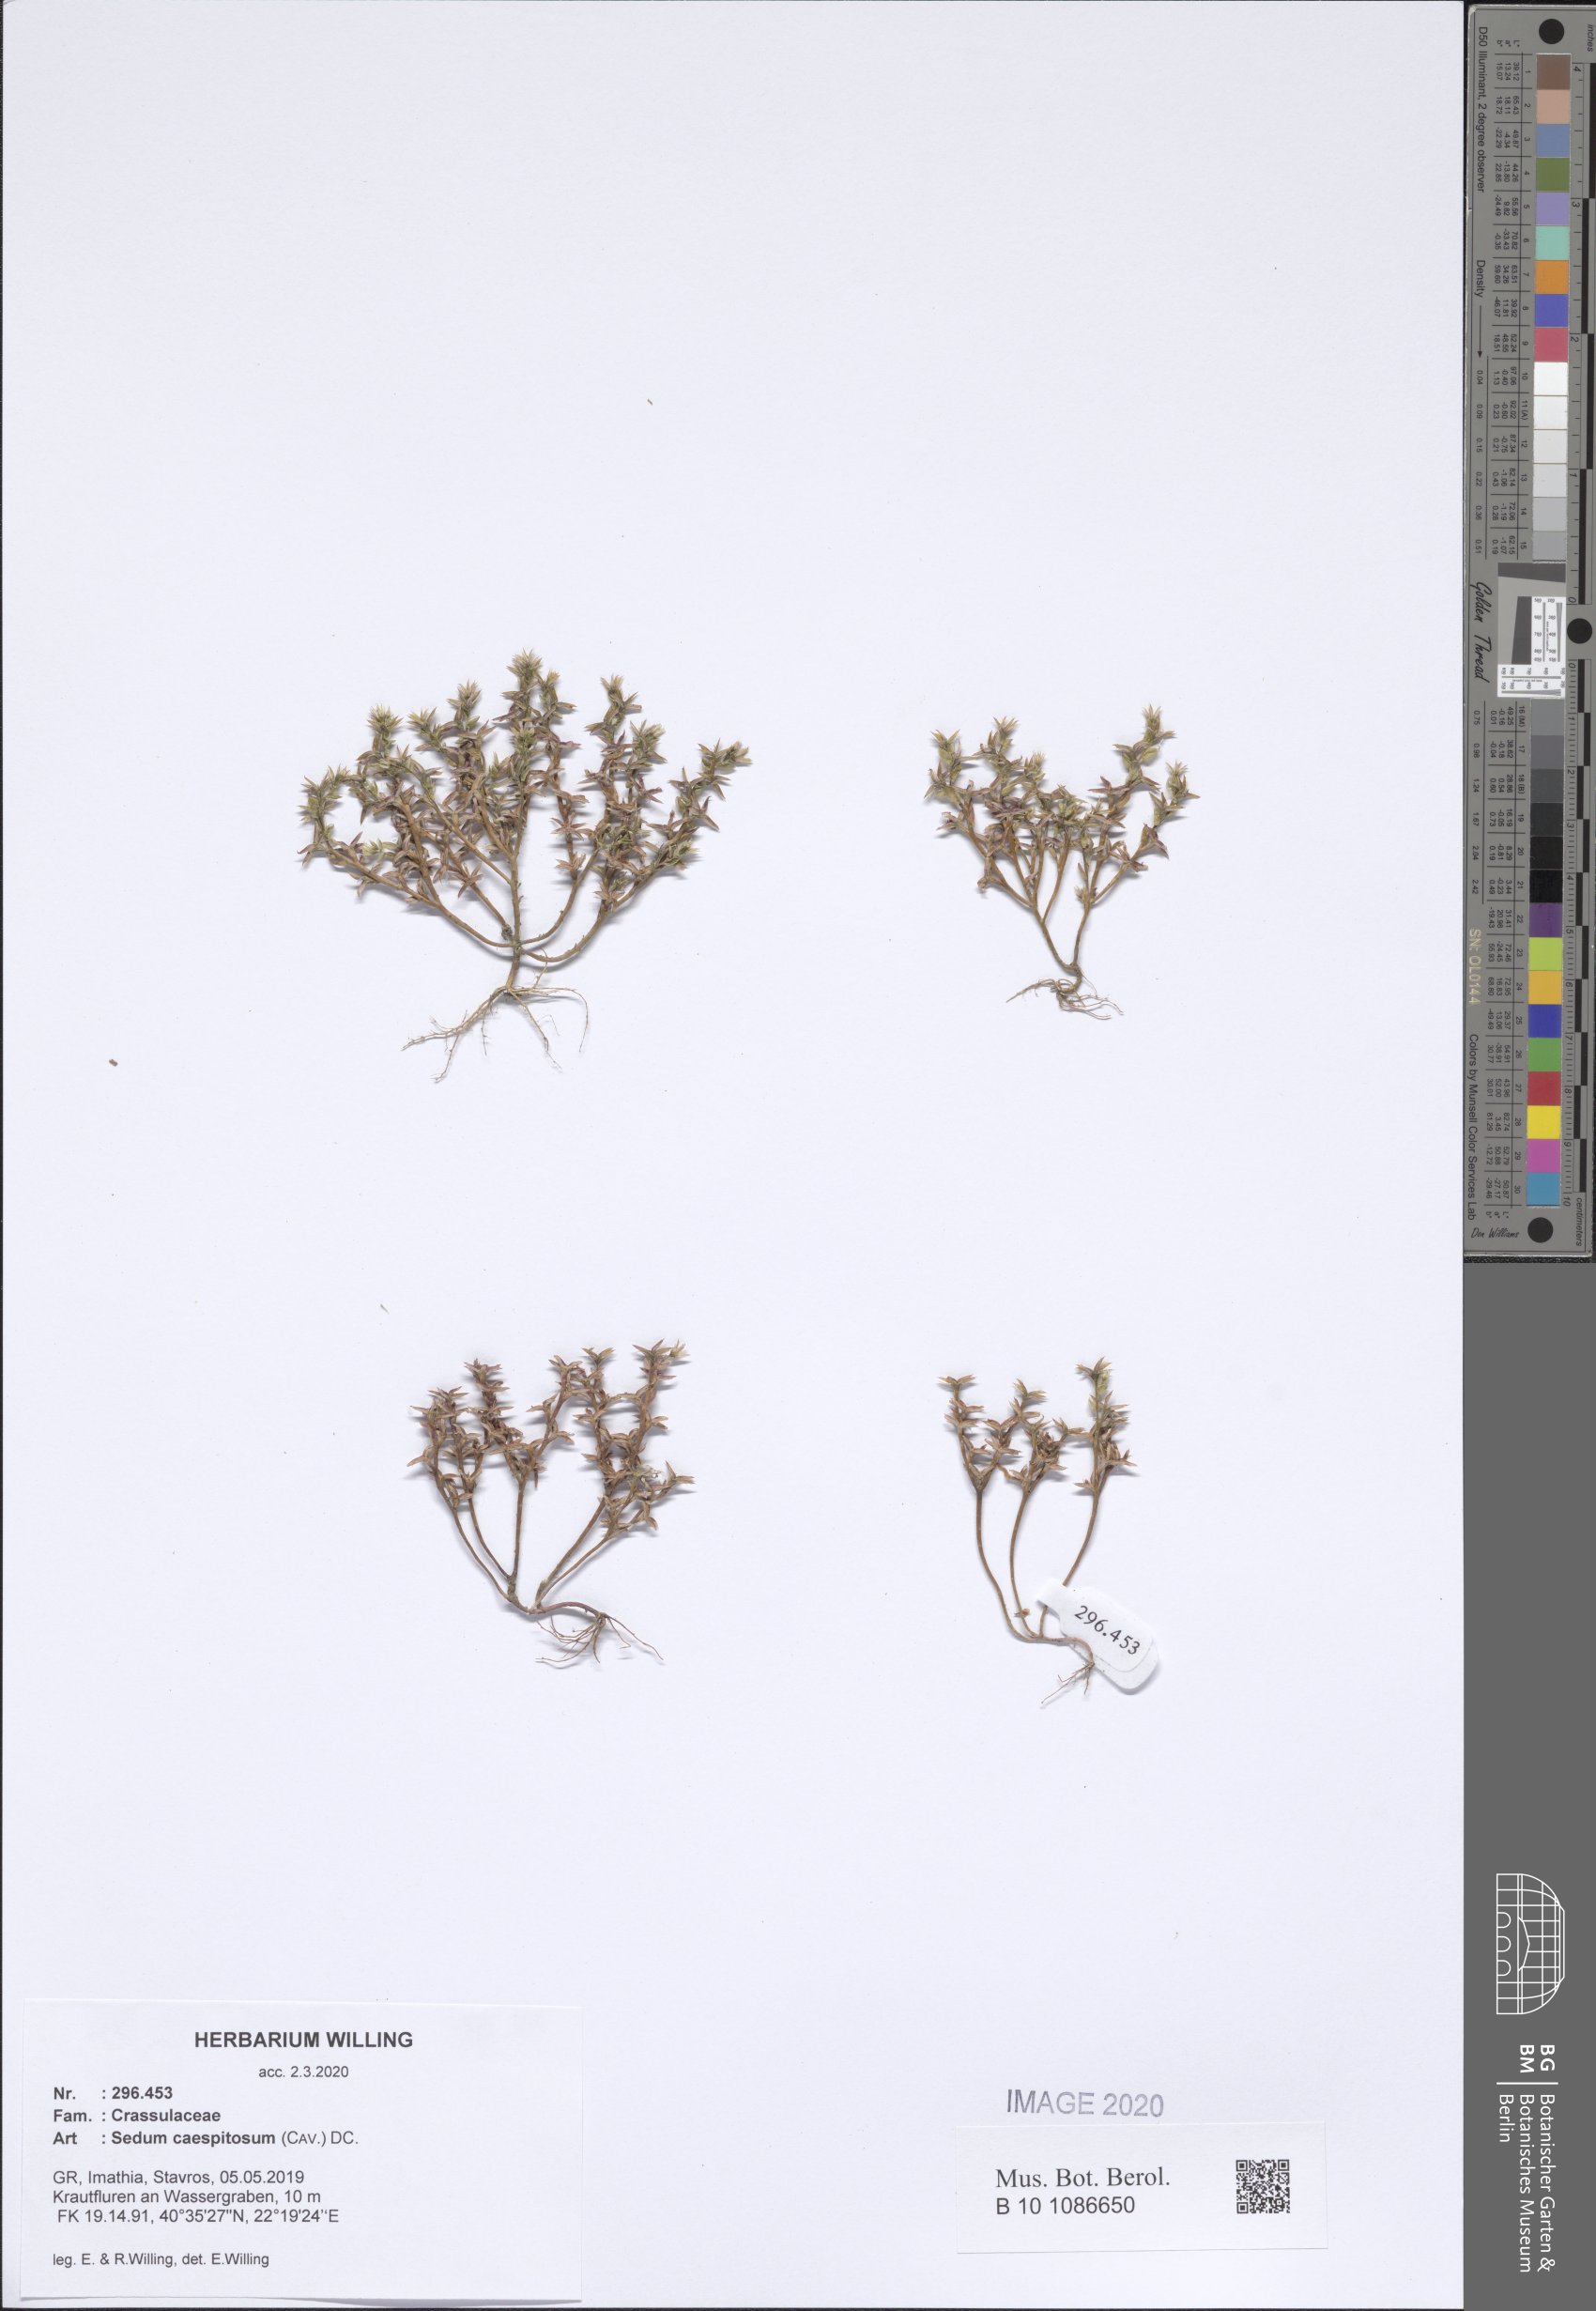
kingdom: Plantae
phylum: Tracheophyta
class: Magnoliopsida
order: Saxifragales
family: Crassulaceae
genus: Sedum
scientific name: Sedum cespitosum
